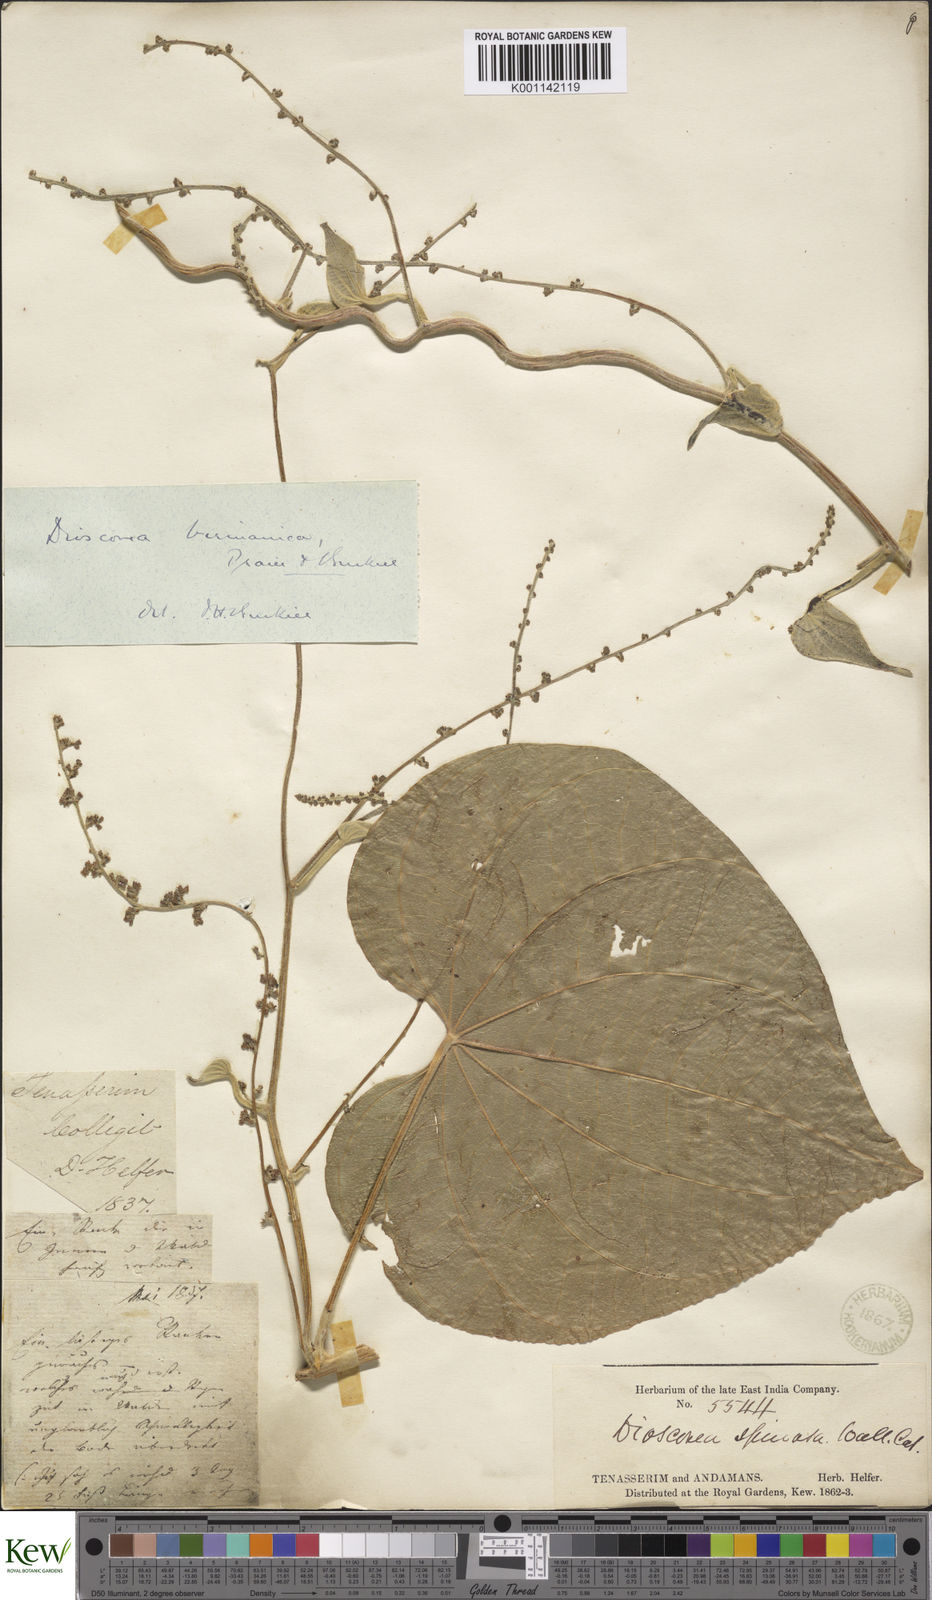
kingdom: Plantae
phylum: Tracheophyta
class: Liliopsida
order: Dioscoreales
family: Dioscoreaceae
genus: Dioscorea
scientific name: Dioscorea birmanica
